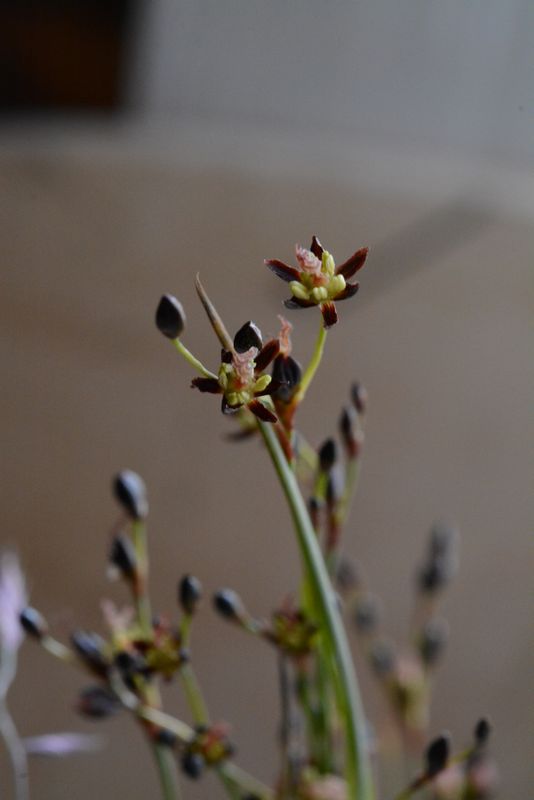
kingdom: Plantae
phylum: Tracheophyta
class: Liliopsida
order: Poales
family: Juncaceae
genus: Juncus
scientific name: Juncus gerardi
